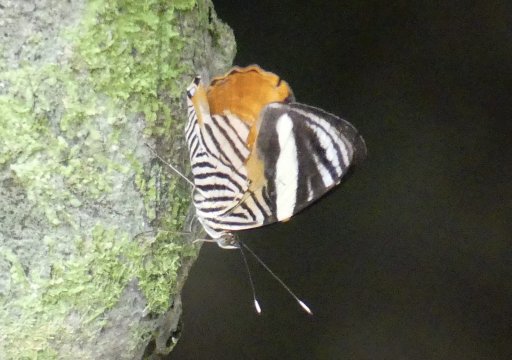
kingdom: Animalia
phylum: Arthropoda
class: Insecta
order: Lepidoptera
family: Nymphalidae
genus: Callizona
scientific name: Callizona acesta
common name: Tiger Beauty
